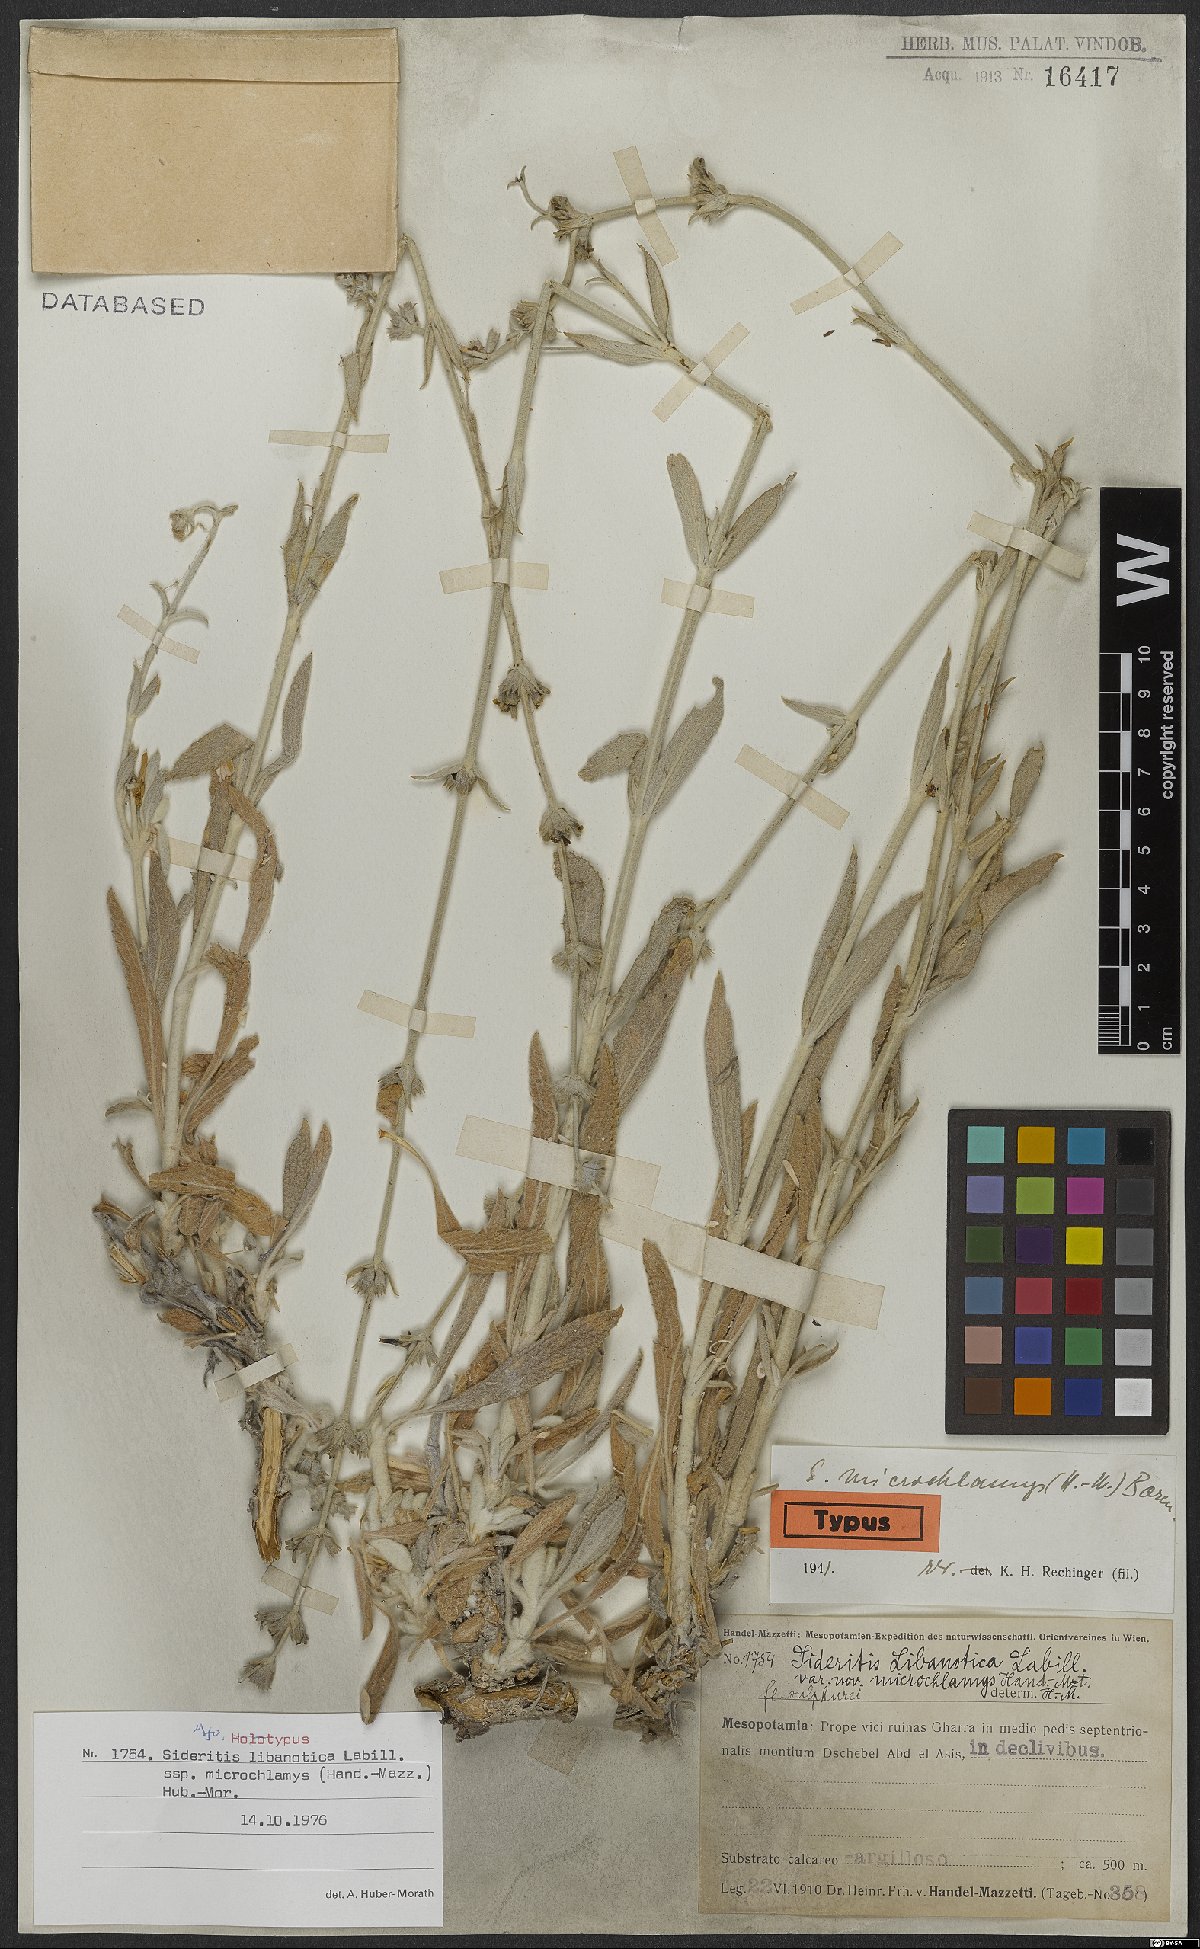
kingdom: Plantae
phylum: Tracheophyta
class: Magnoliopsida
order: Lamiales
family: Lamiaceae
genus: Sideritis
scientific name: Sideritis libanotica
